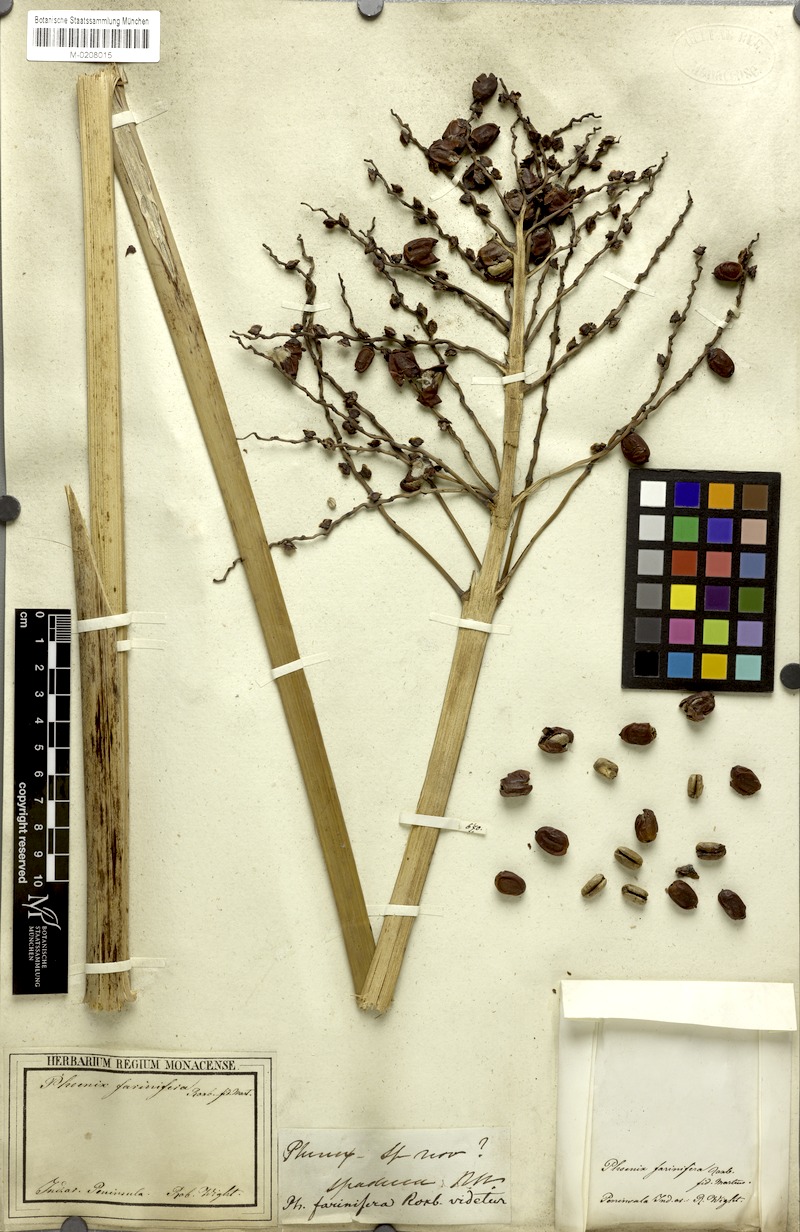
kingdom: Plantae
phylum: Tracheophyta
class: Liliopsida
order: Arecales
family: Arecaceae
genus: Phoenix
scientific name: Phoenix pusilla
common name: Flour palm
